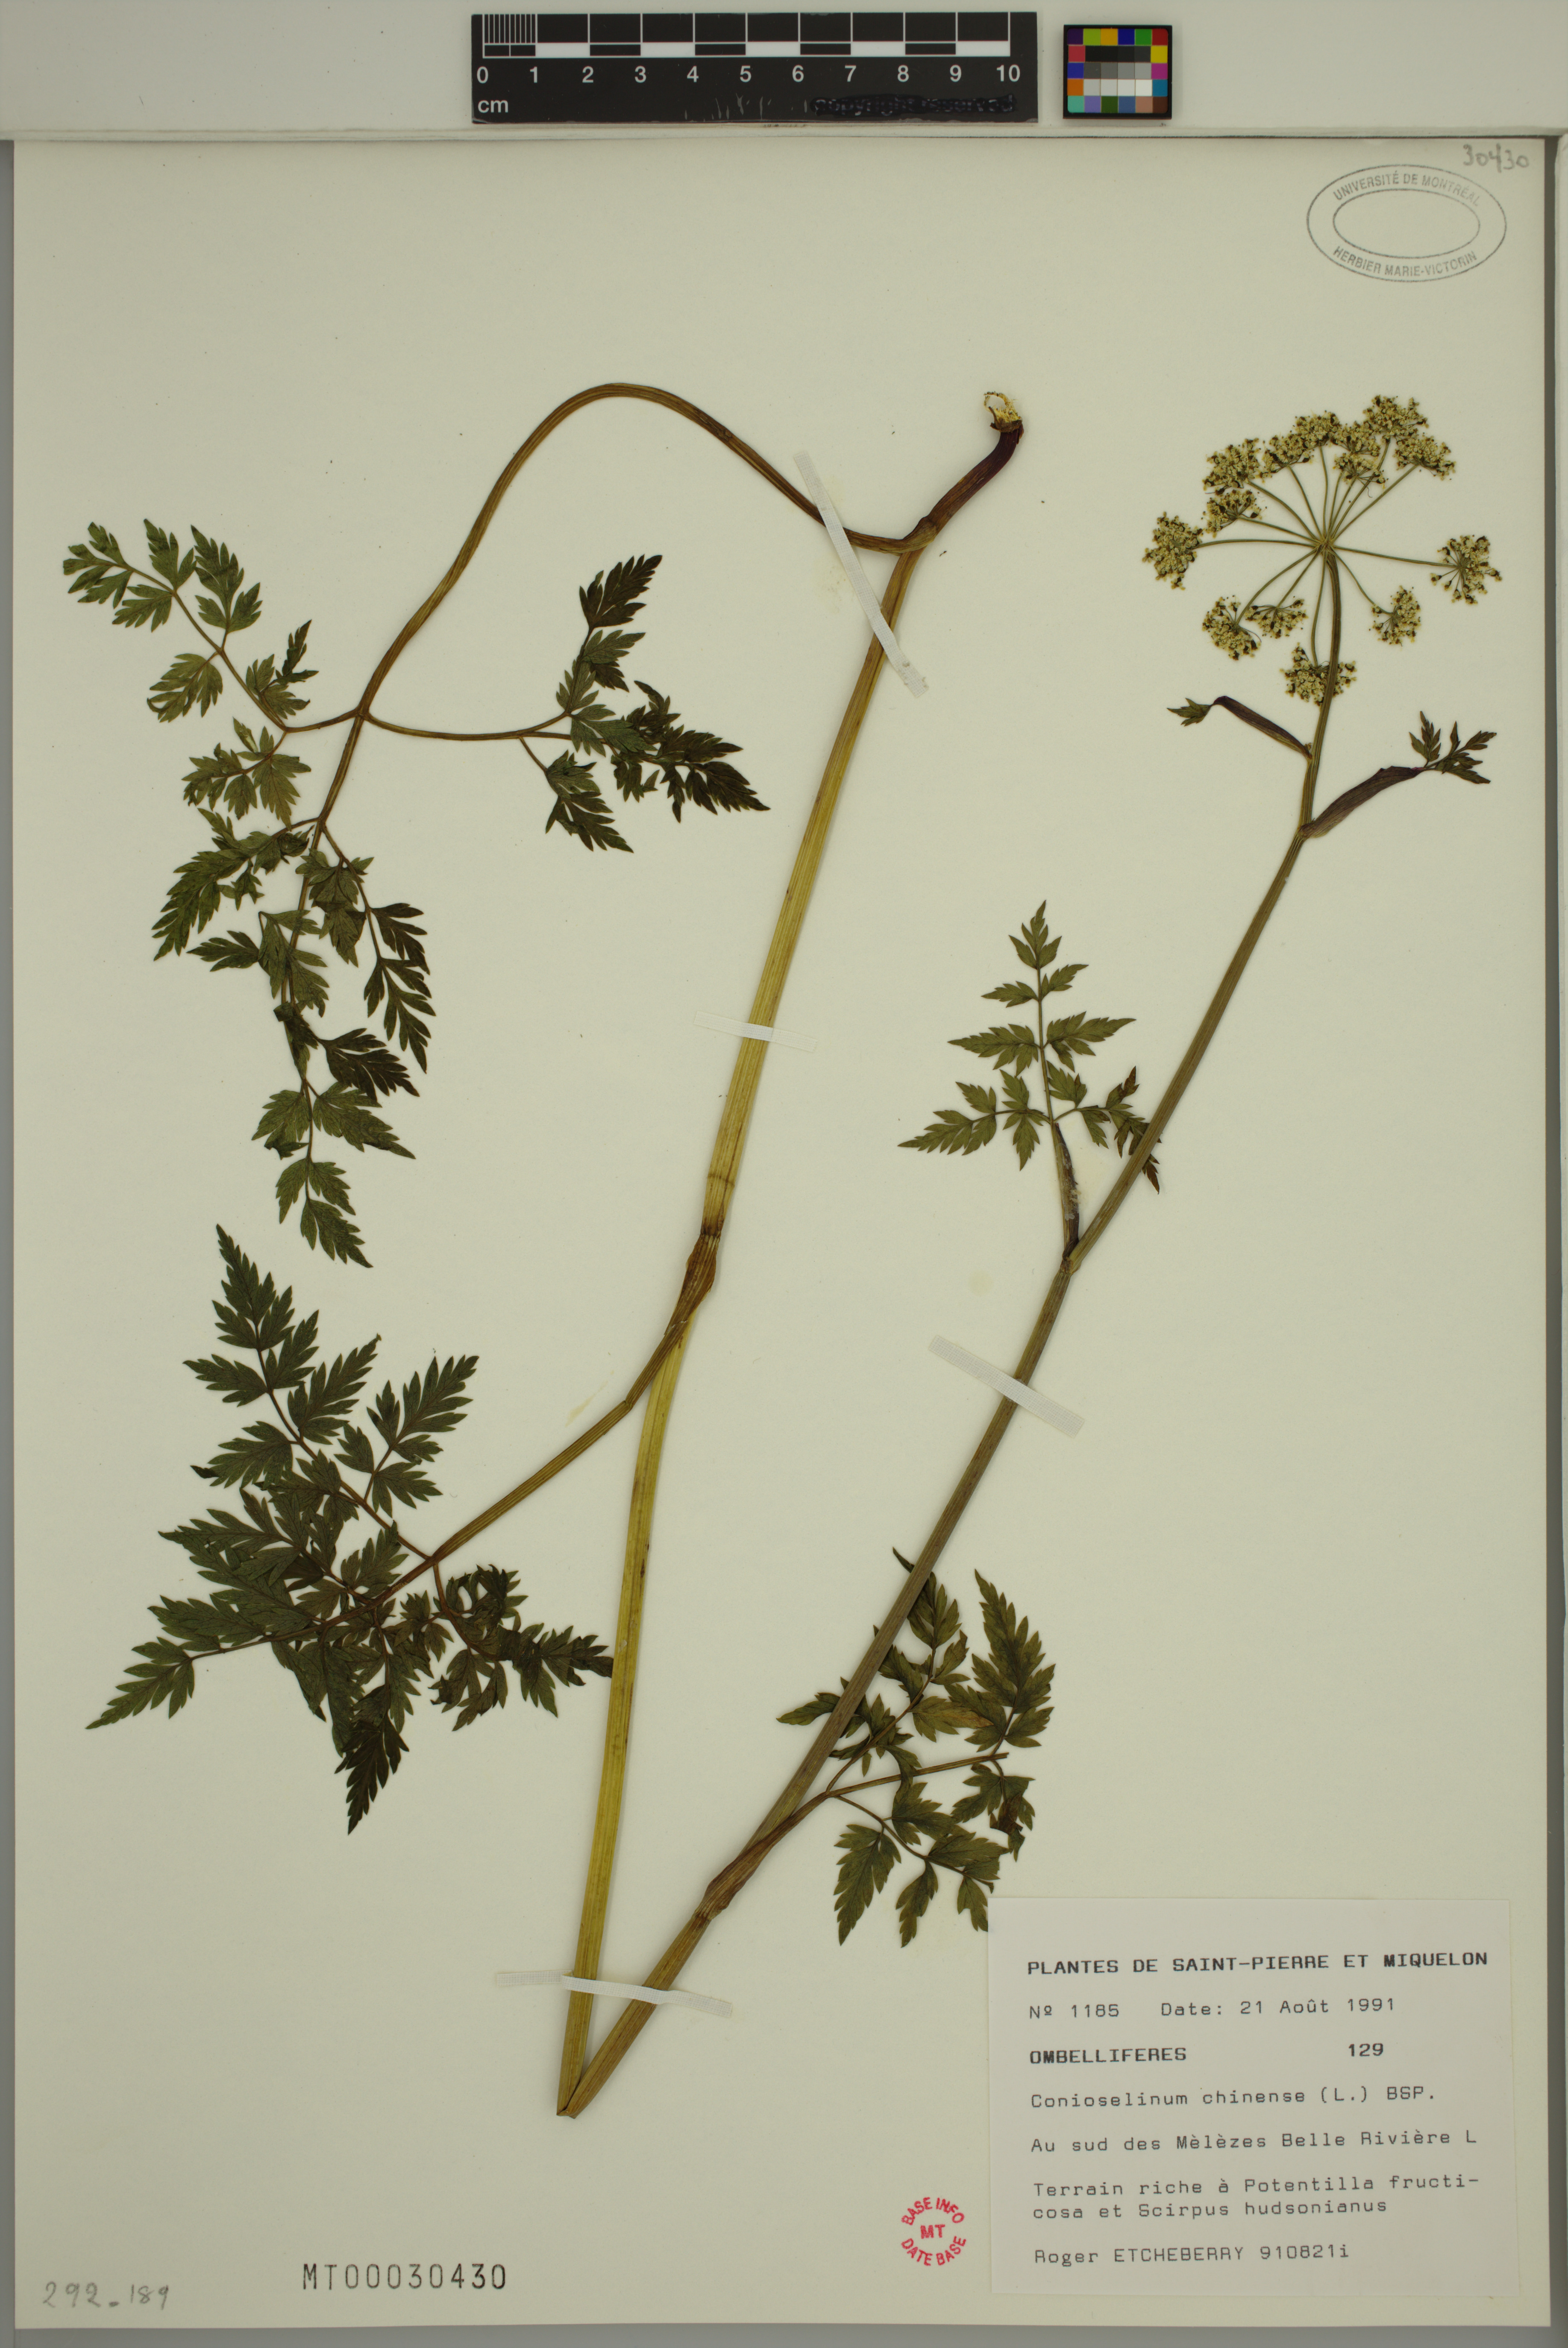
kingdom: Plantae
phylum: Tracheophyta
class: Magnoliopsida
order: Apiales
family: Apiaceae
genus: Kreidion
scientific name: Kreidion chinensis
